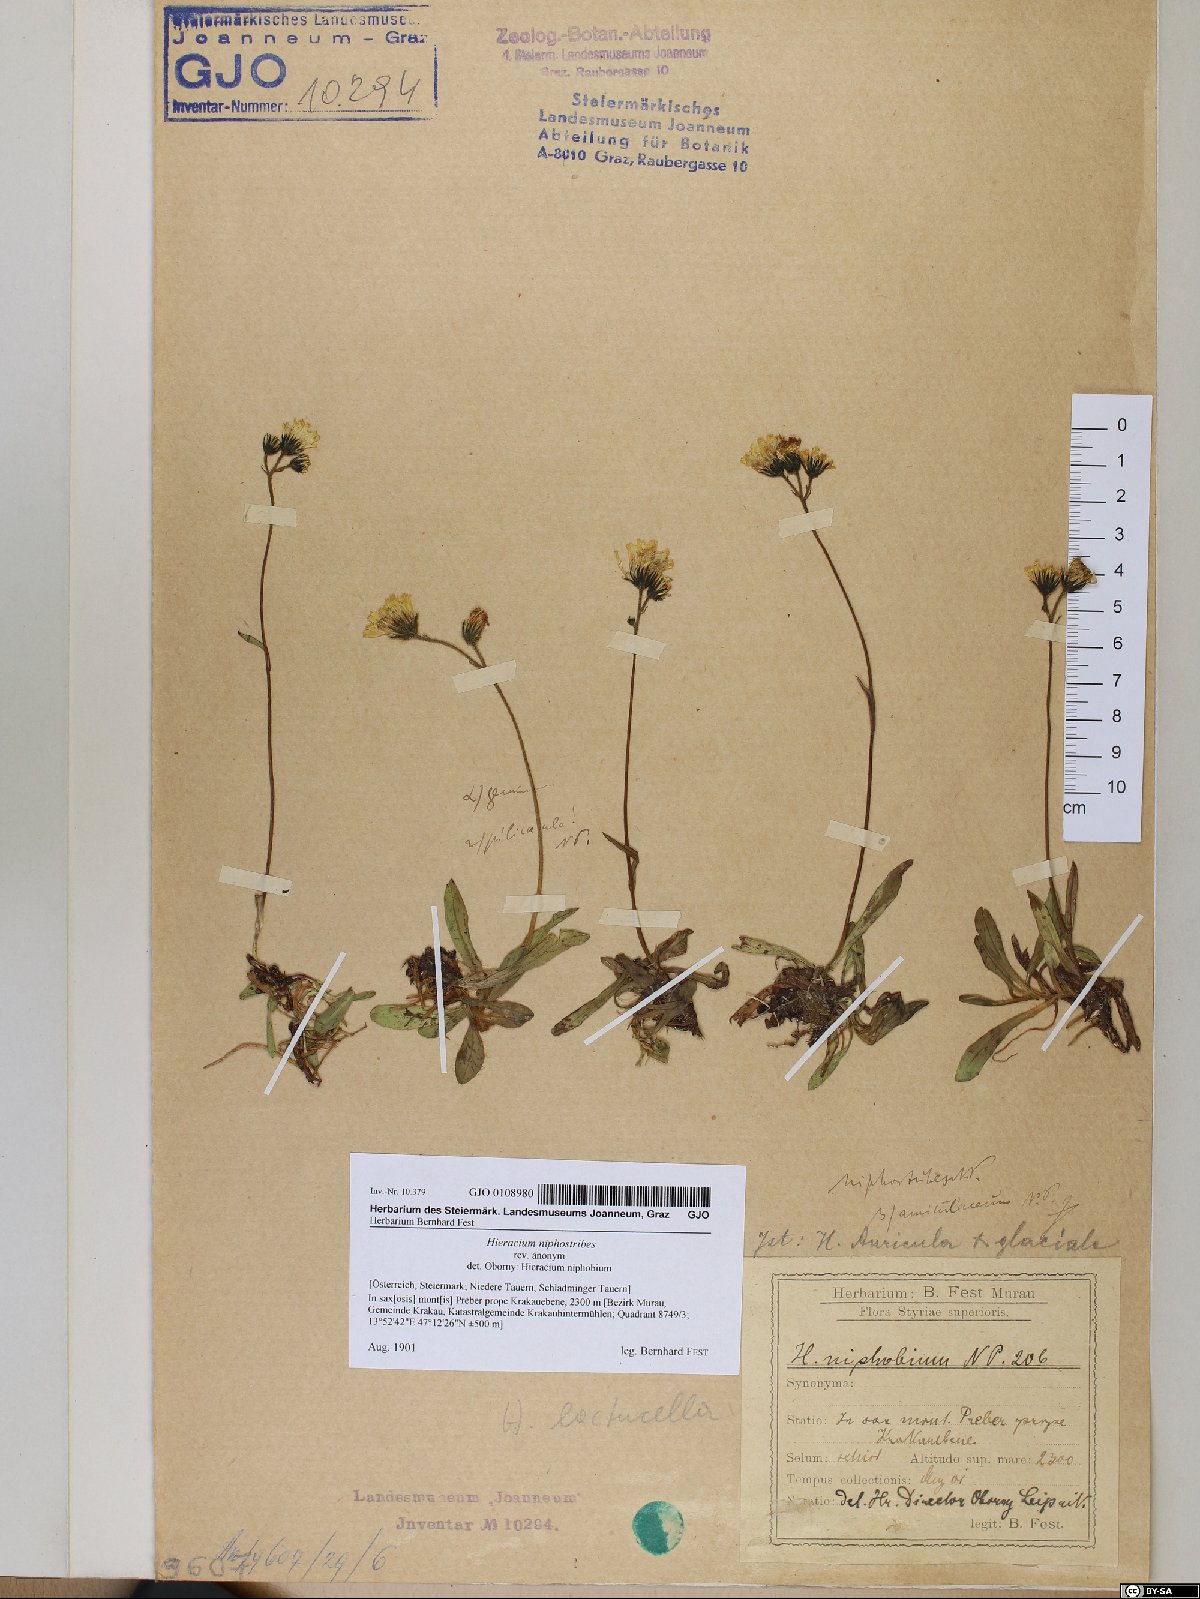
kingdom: Plantae
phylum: Tracheophyta
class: Magnoliopsida
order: Asterales
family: Asteraceae
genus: Pilosella
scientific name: Pilosella corymbuloides
